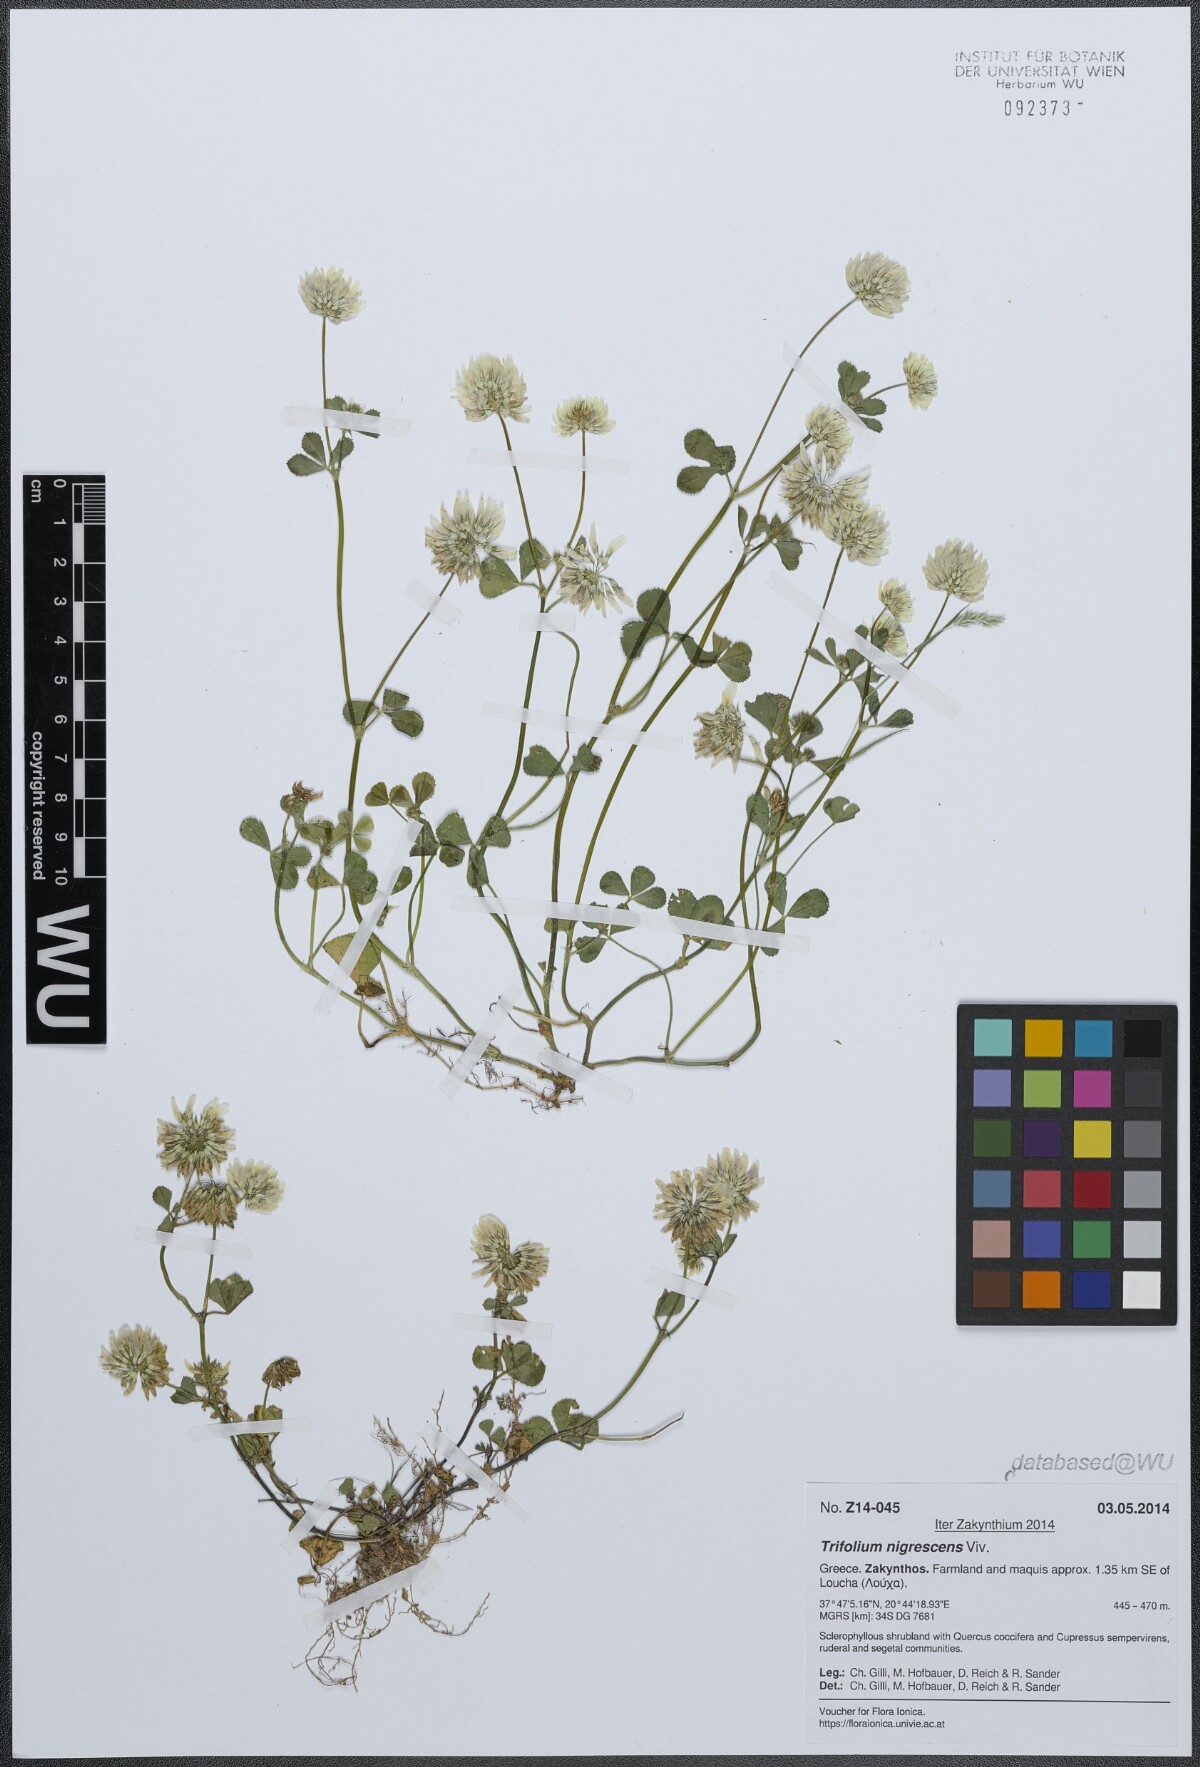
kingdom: Plantae
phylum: Tracheophyta
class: Magnoliopsida
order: Fabales
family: Fabaceae
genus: Trifolium
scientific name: Trifolium nigrescens
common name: Small white clover
